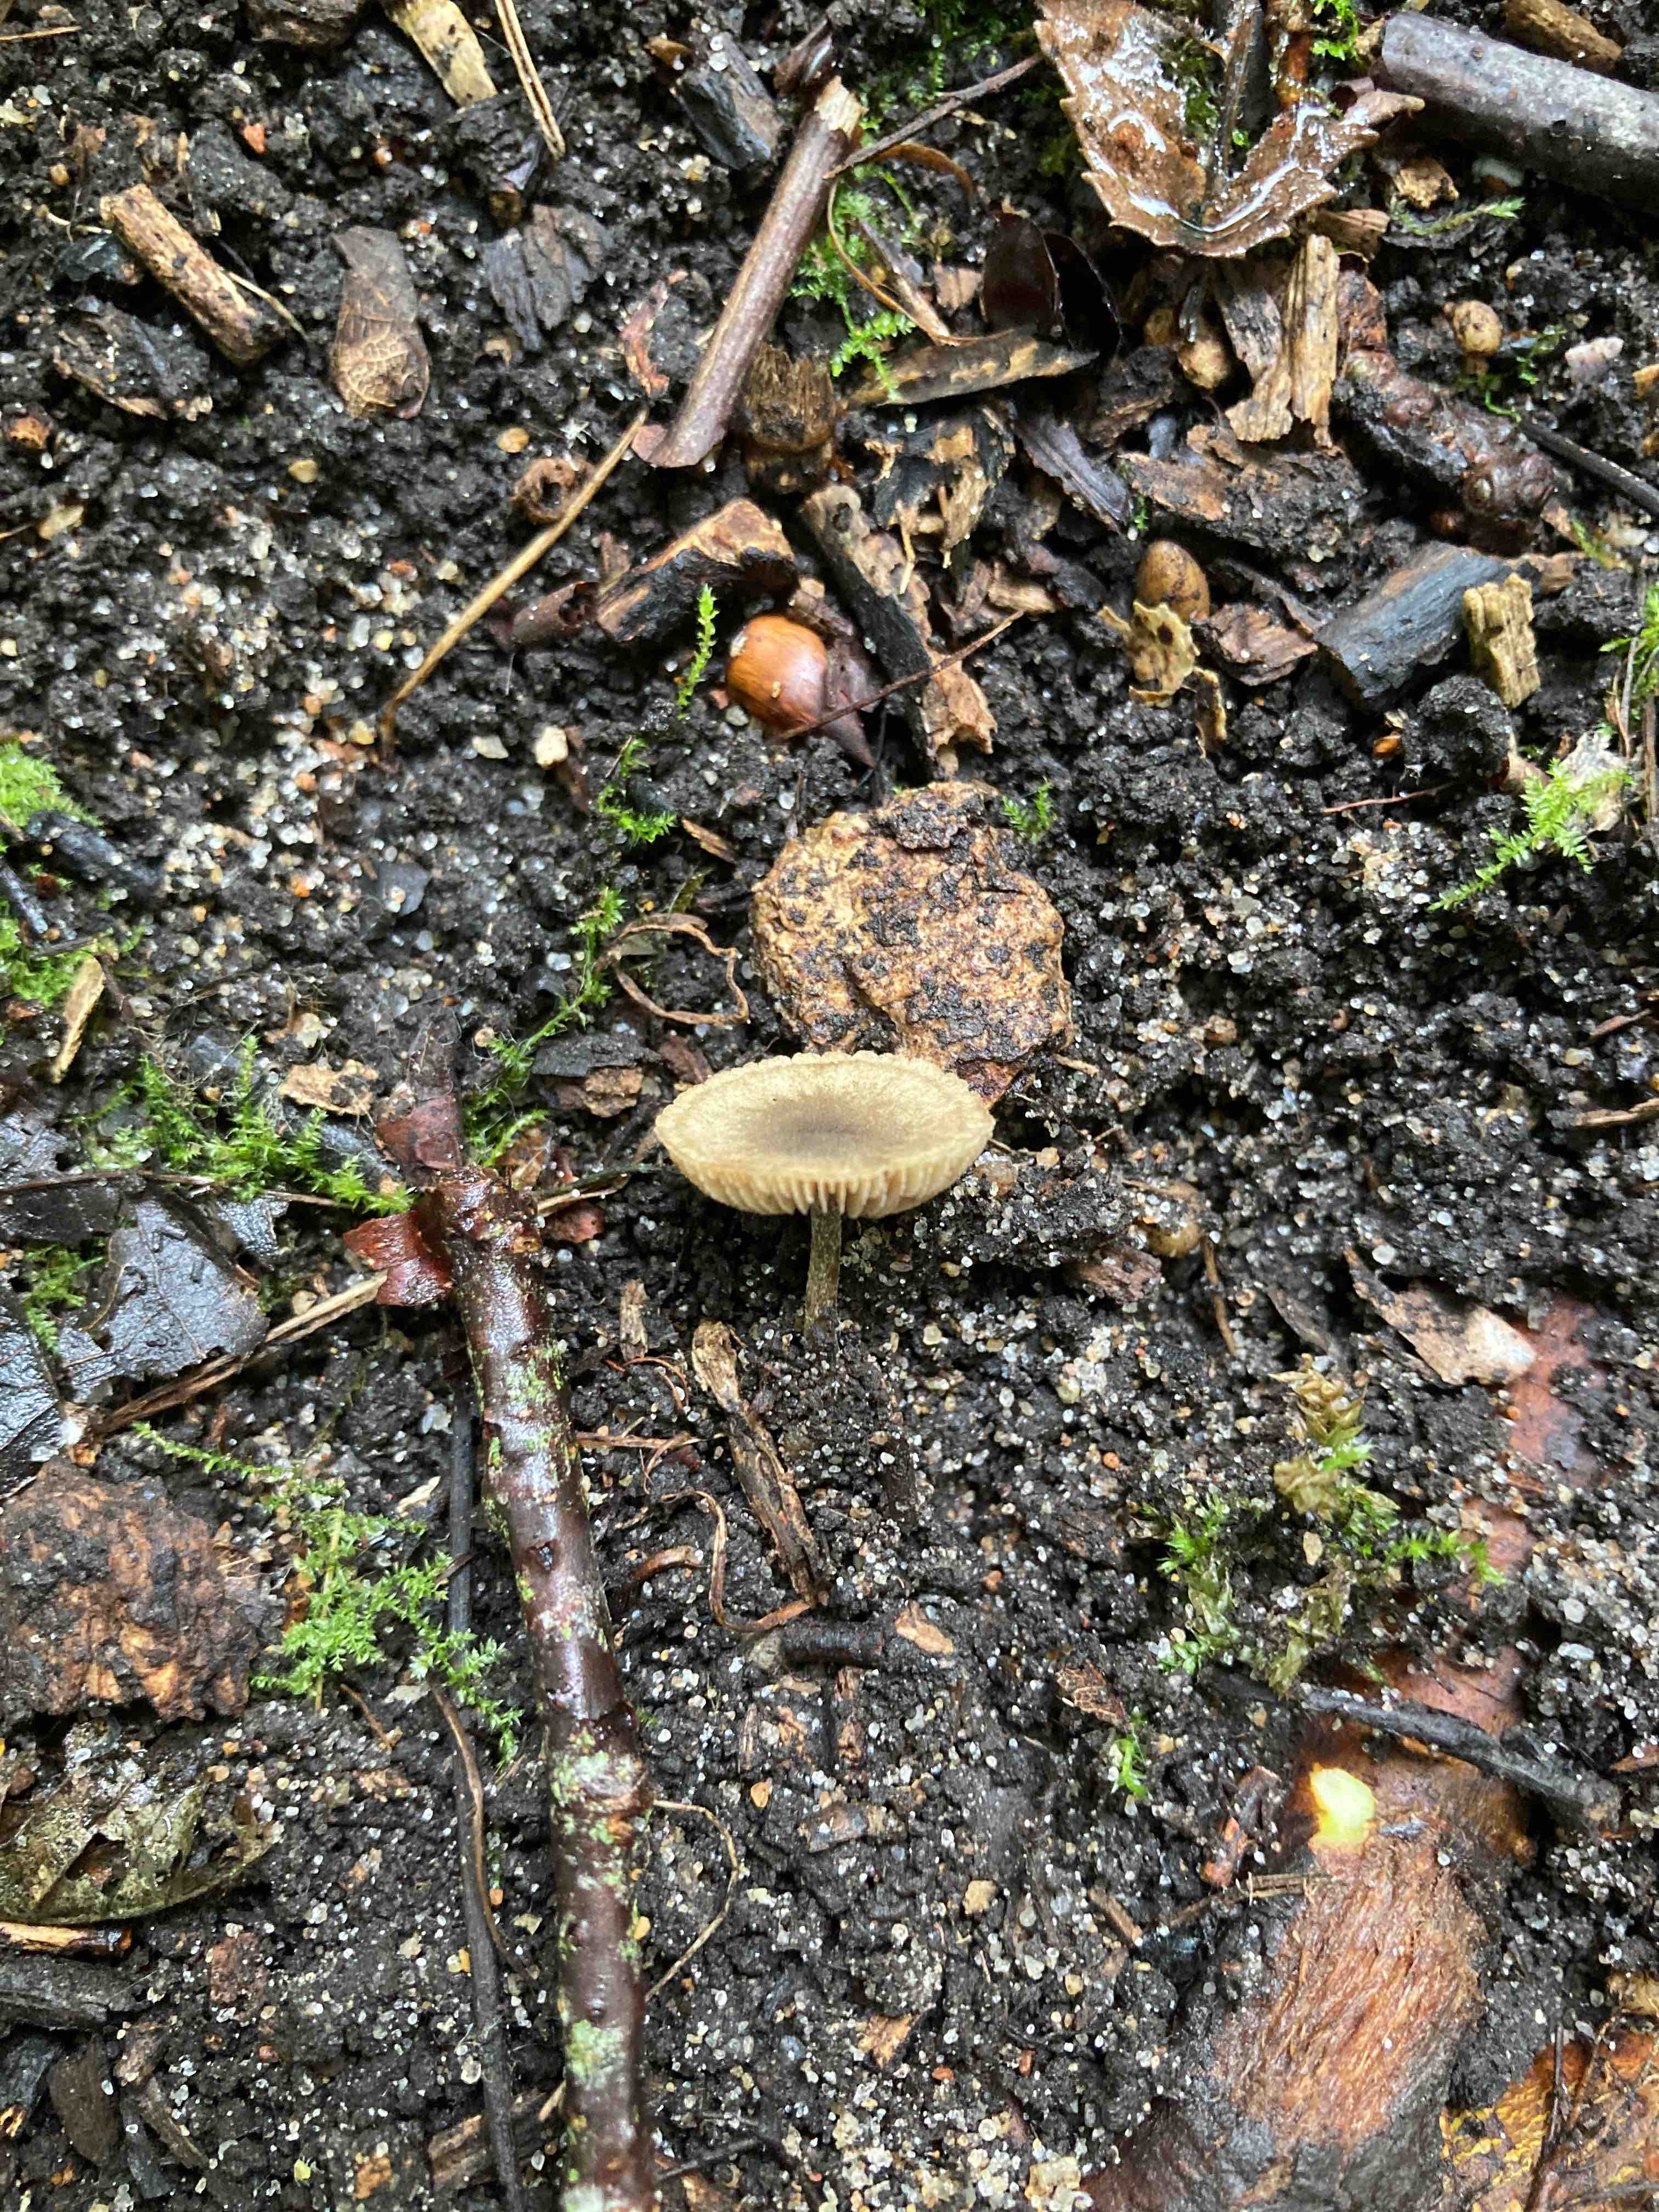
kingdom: Fungi
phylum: Basidiomycota
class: Agaricomycetes
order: Agaricales
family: Crepidotaceae
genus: Simocybe
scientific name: Simocybe centunculus
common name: enlig skyggehat
